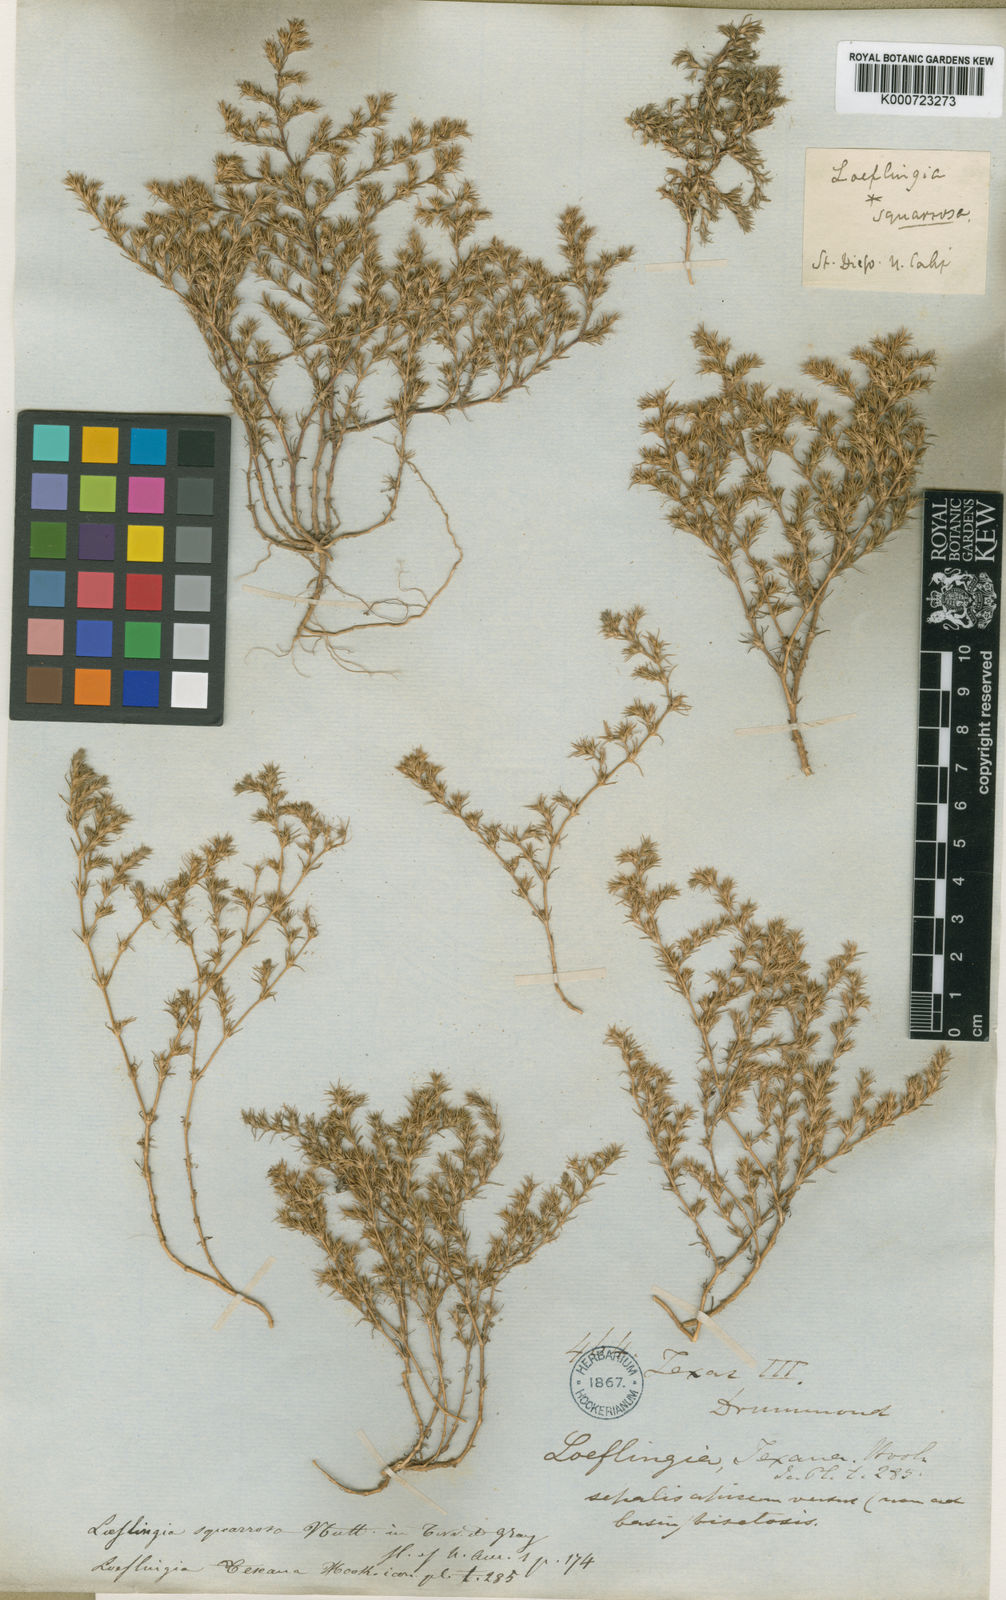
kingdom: Plantae
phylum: Tracheophyta
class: Magnoliopsida
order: Caryophyllales
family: Caryophyllaceae
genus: Loeflingia
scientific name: Loeflingia squarrosa
